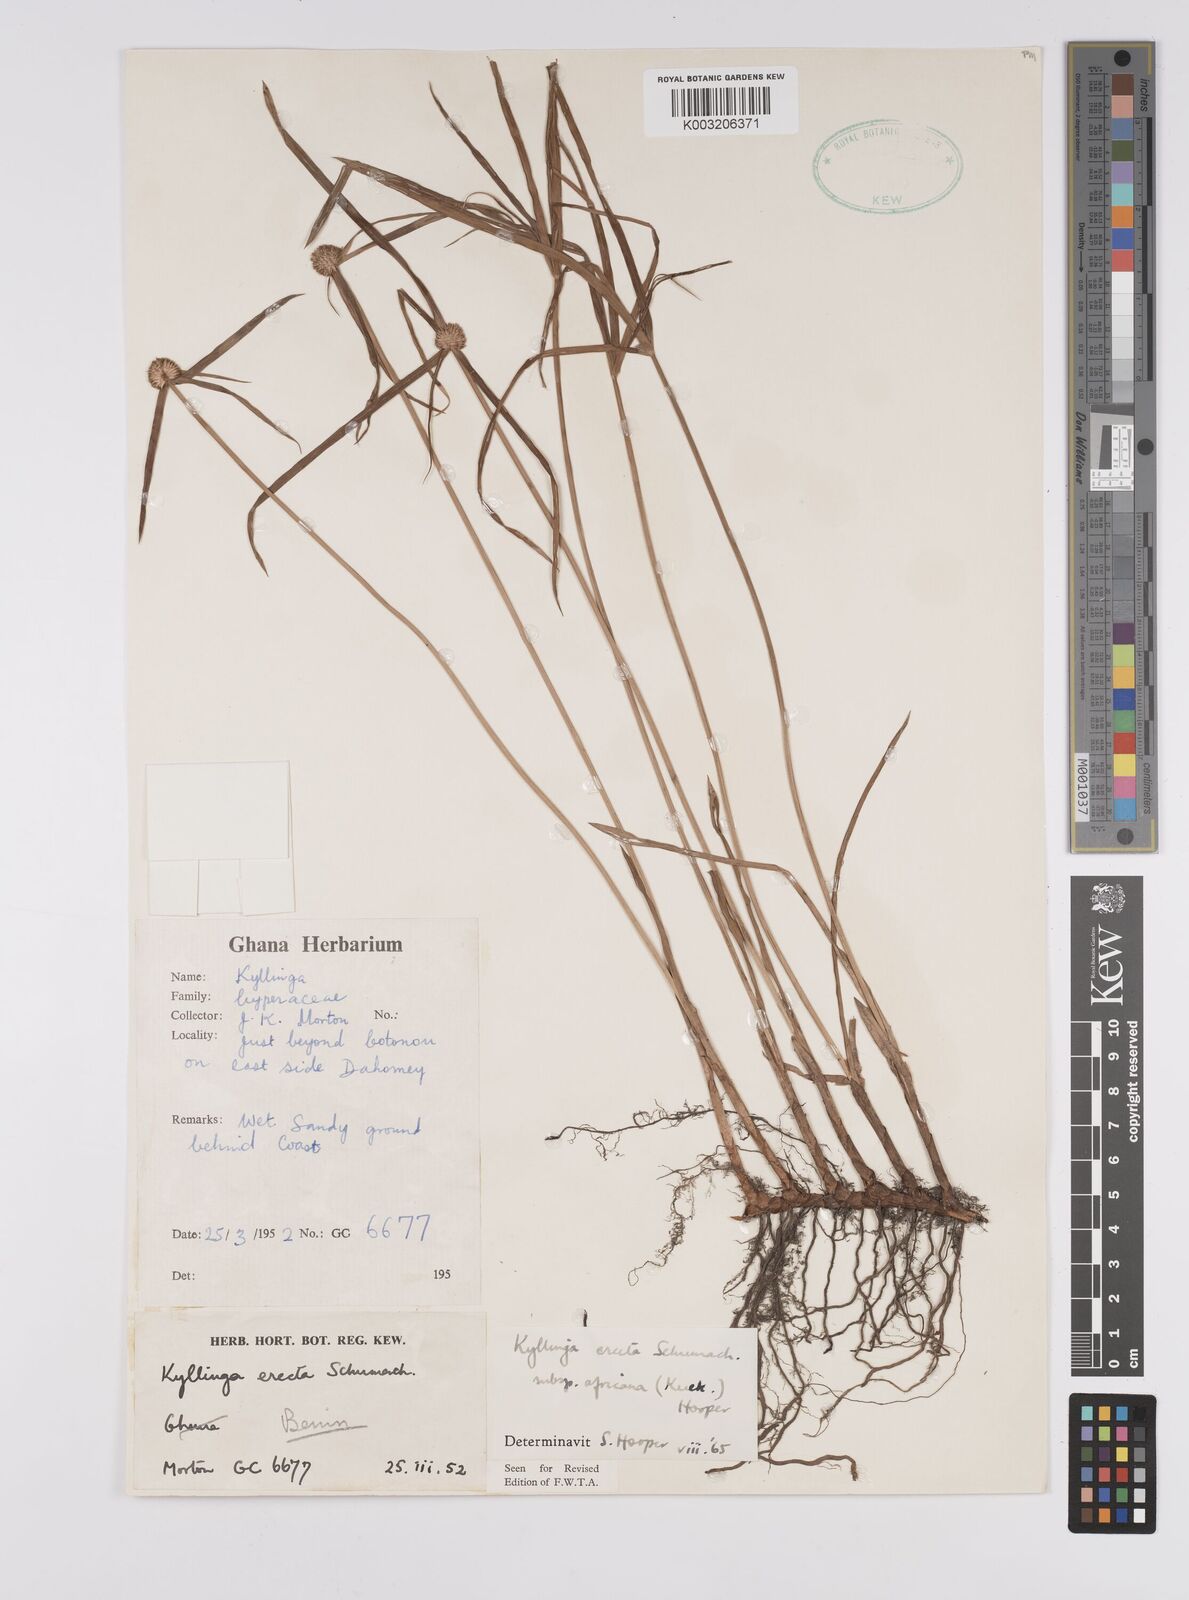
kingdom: Plantae
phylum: Tracheophyta
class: Liliopsida
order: Poales
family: Cyperaceae
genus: Cyperus
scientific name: Cyperus erectus
